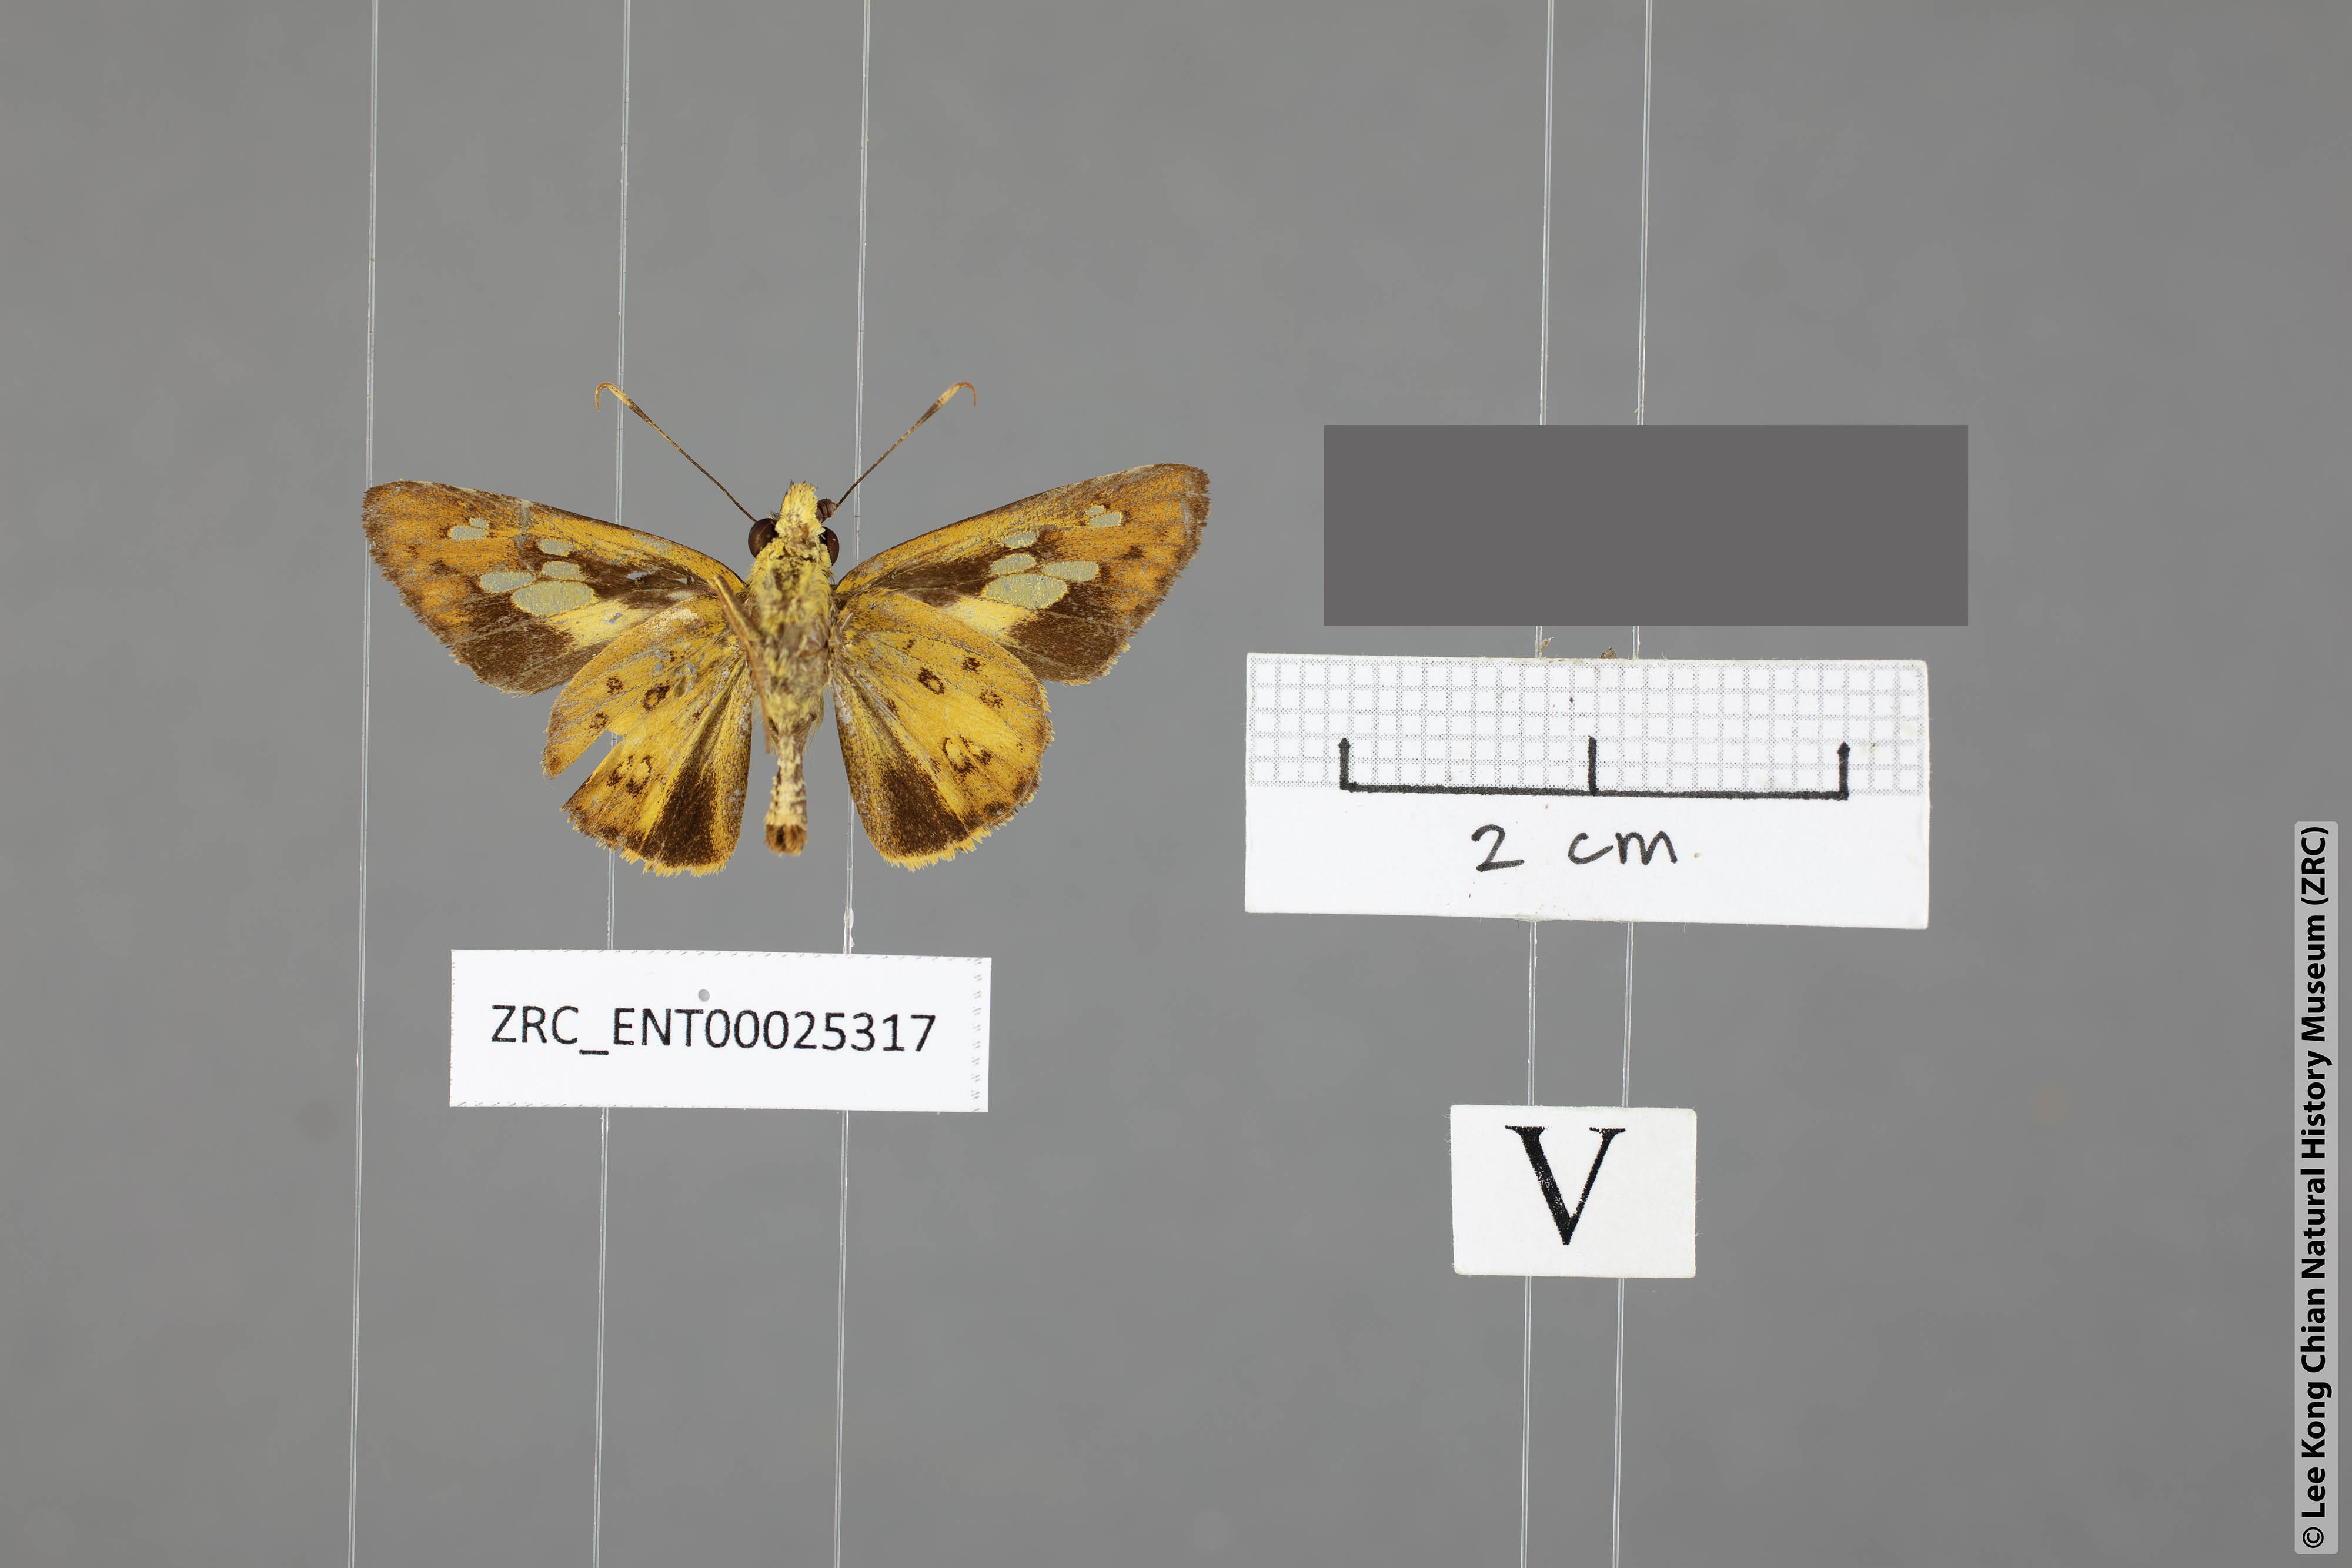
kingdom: Animalia
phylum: Arthropoda
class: Insecta
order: Lepidoptera
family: Hesperiidae
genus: Salanoemia
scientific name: Salanoemia similis
